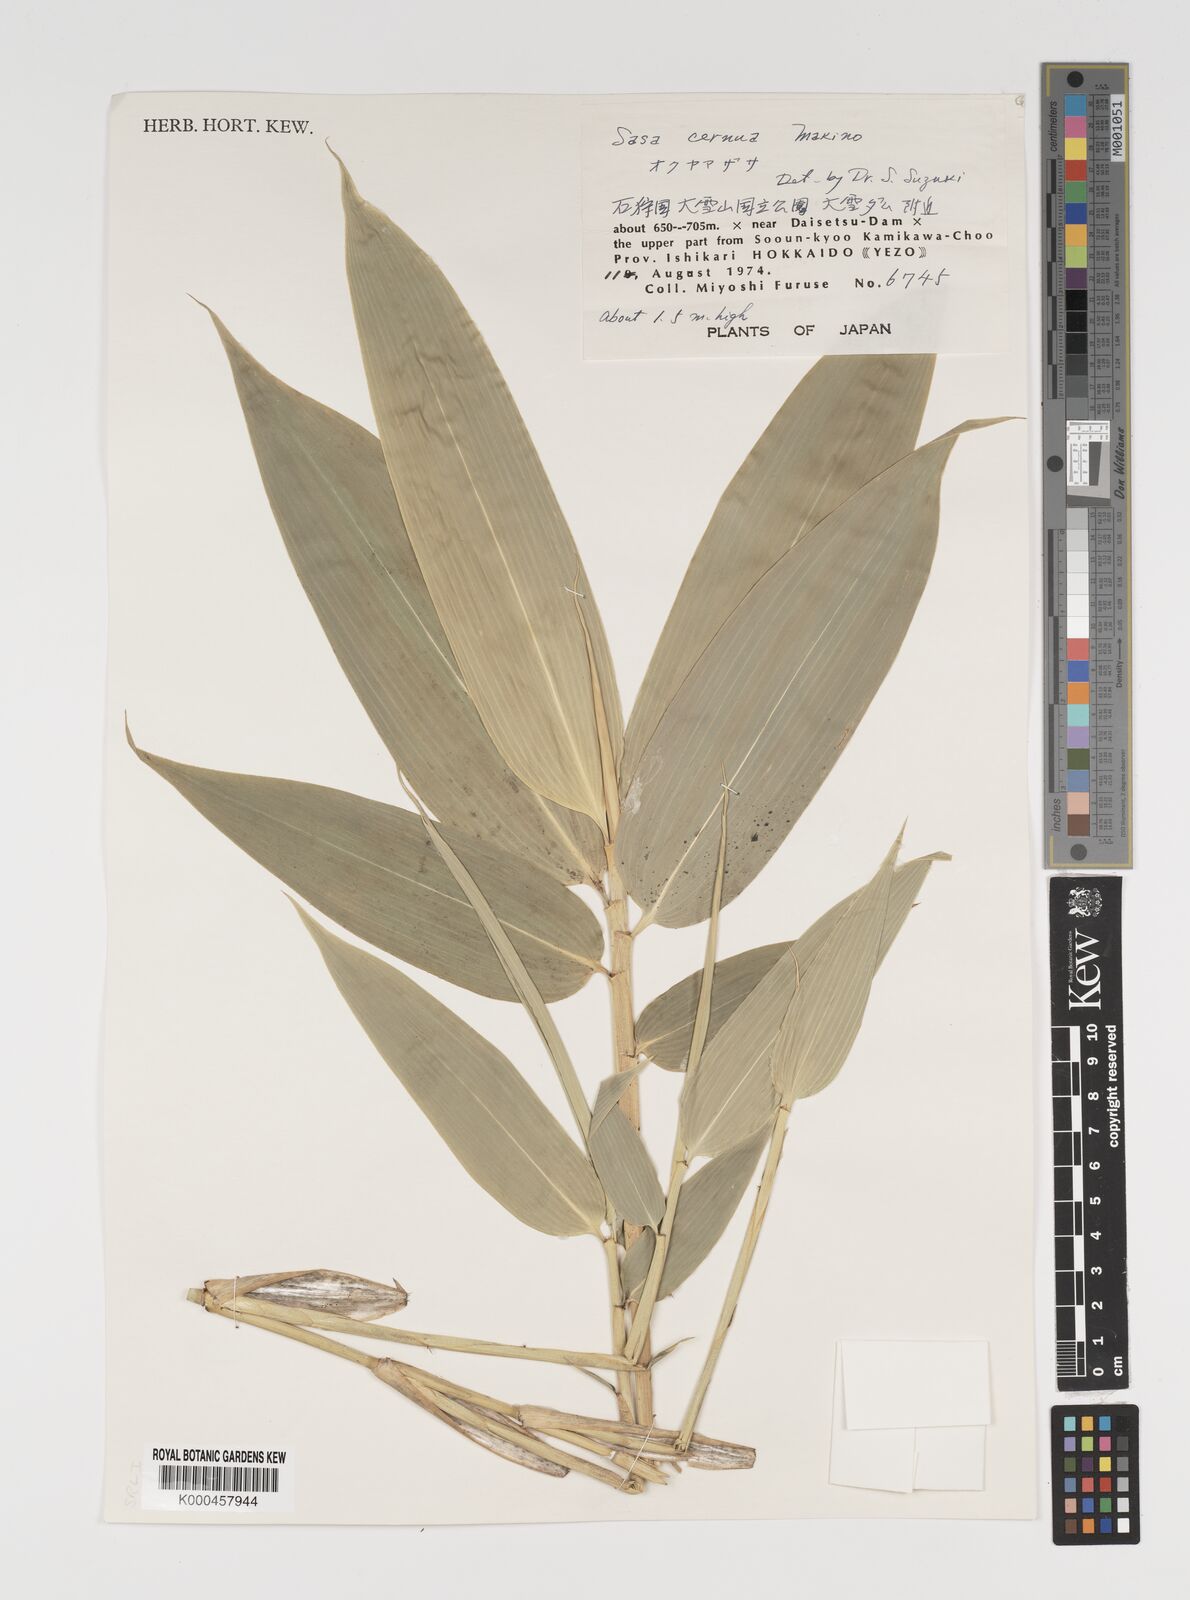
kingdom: Plantae
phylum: Tracheophyta
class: Liliopsida
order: Poales
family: Poaceae
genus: Sasa
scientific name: Sasa cernua
